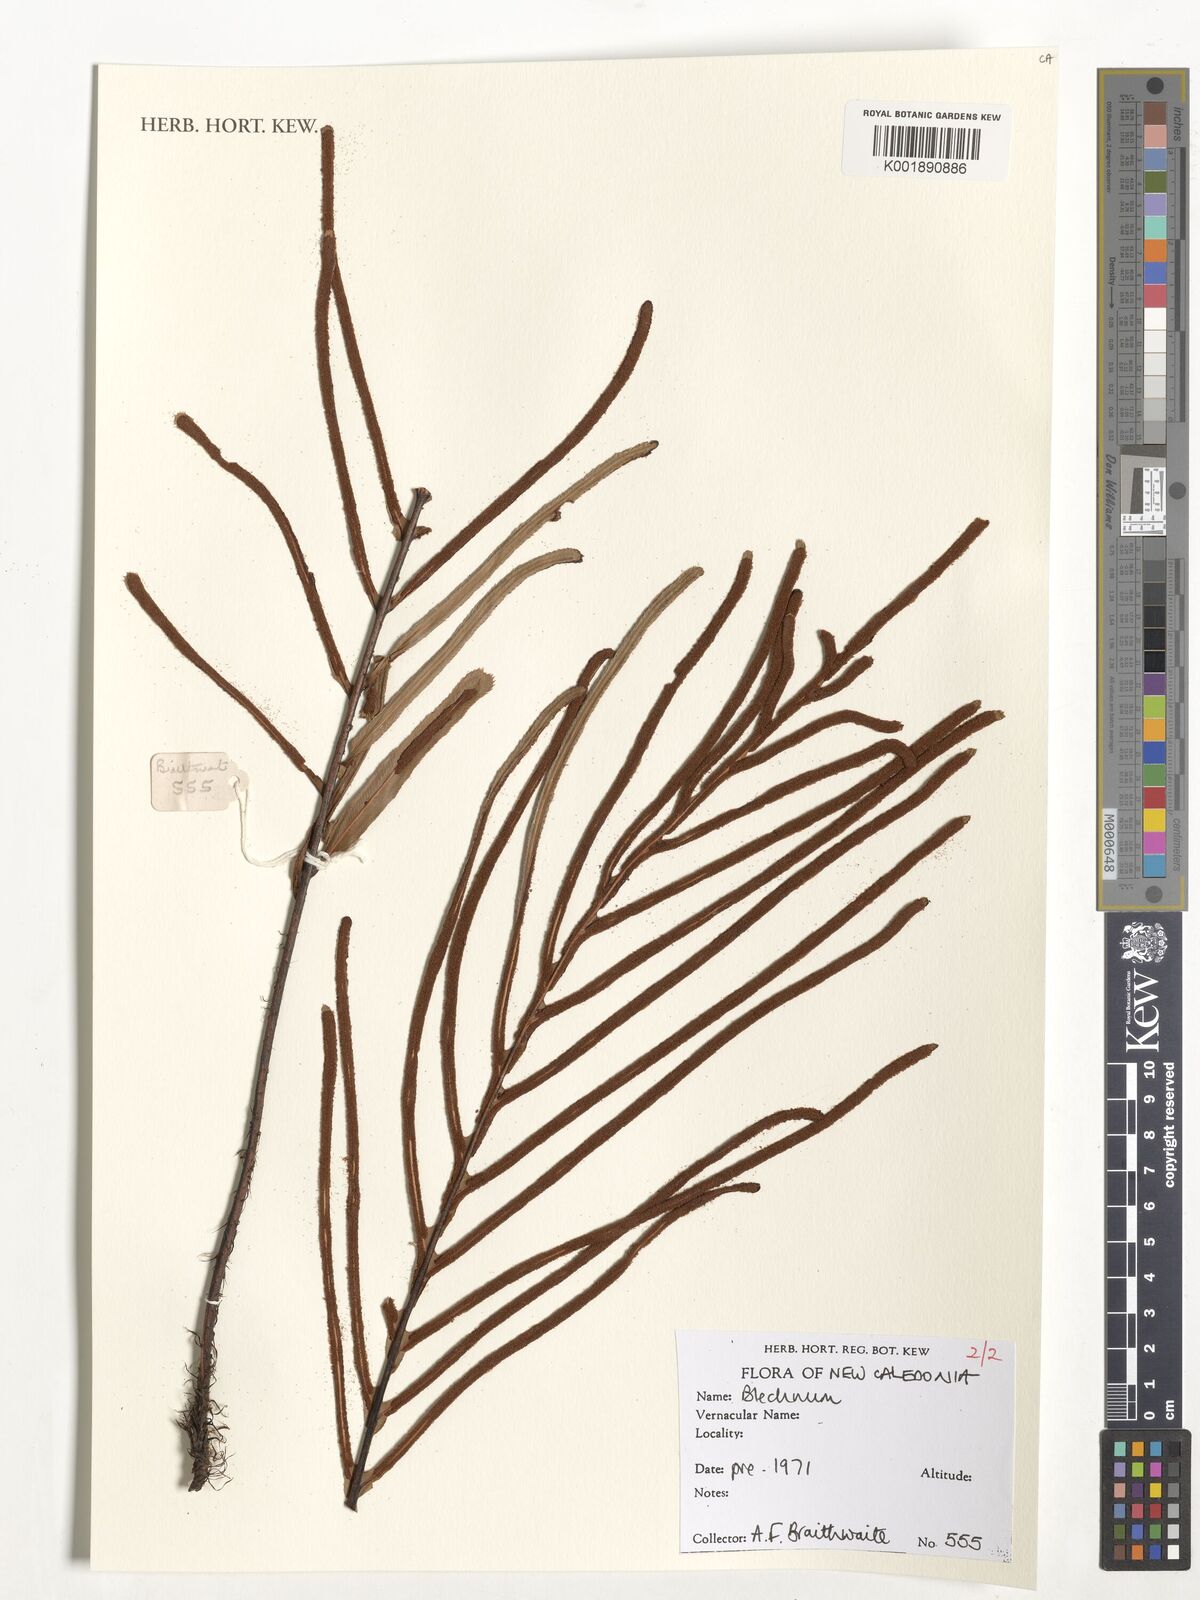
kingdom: Plantae
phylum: Tracheophyta
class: Polypodiopsida
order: Polypodiales
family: Blechnaceae
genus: Blechnum
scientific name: Blechnum
